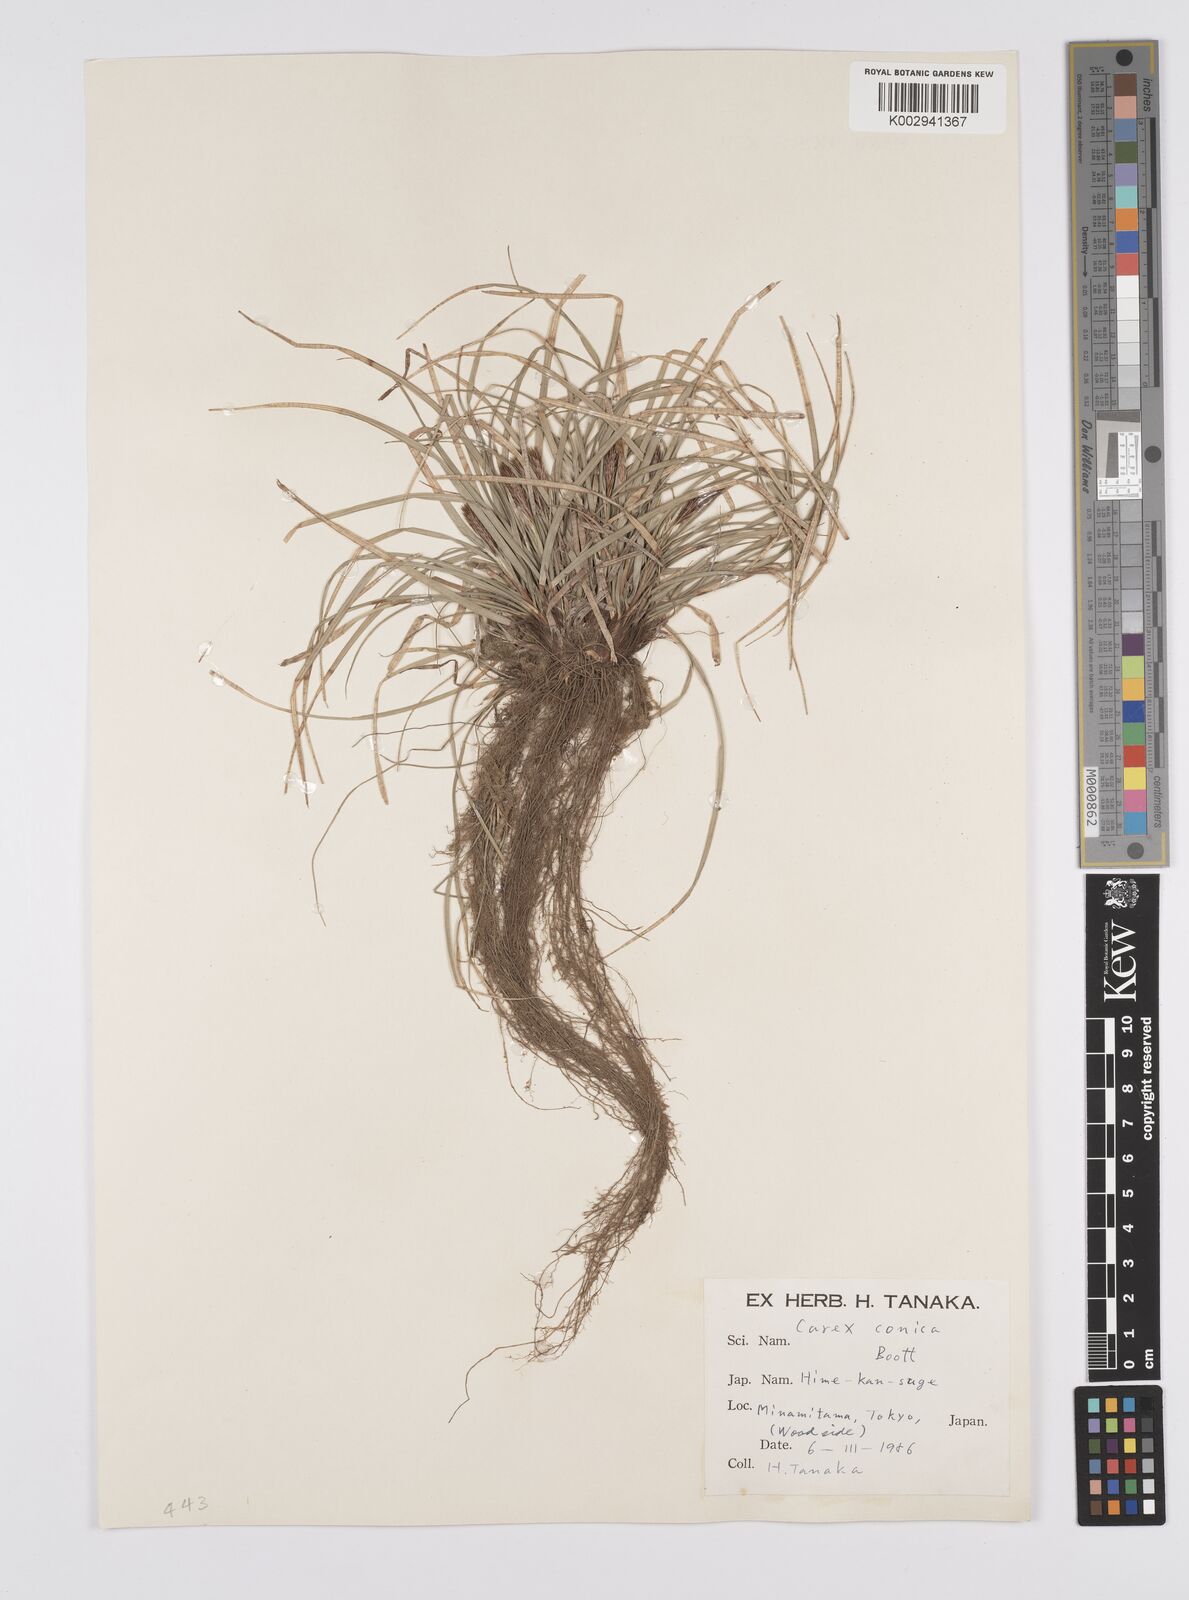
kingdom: Plantae
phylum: Tracheophyta
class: Liliopsida
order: Poales
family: Cyperaceae
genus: Carex
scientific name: Carex conica
